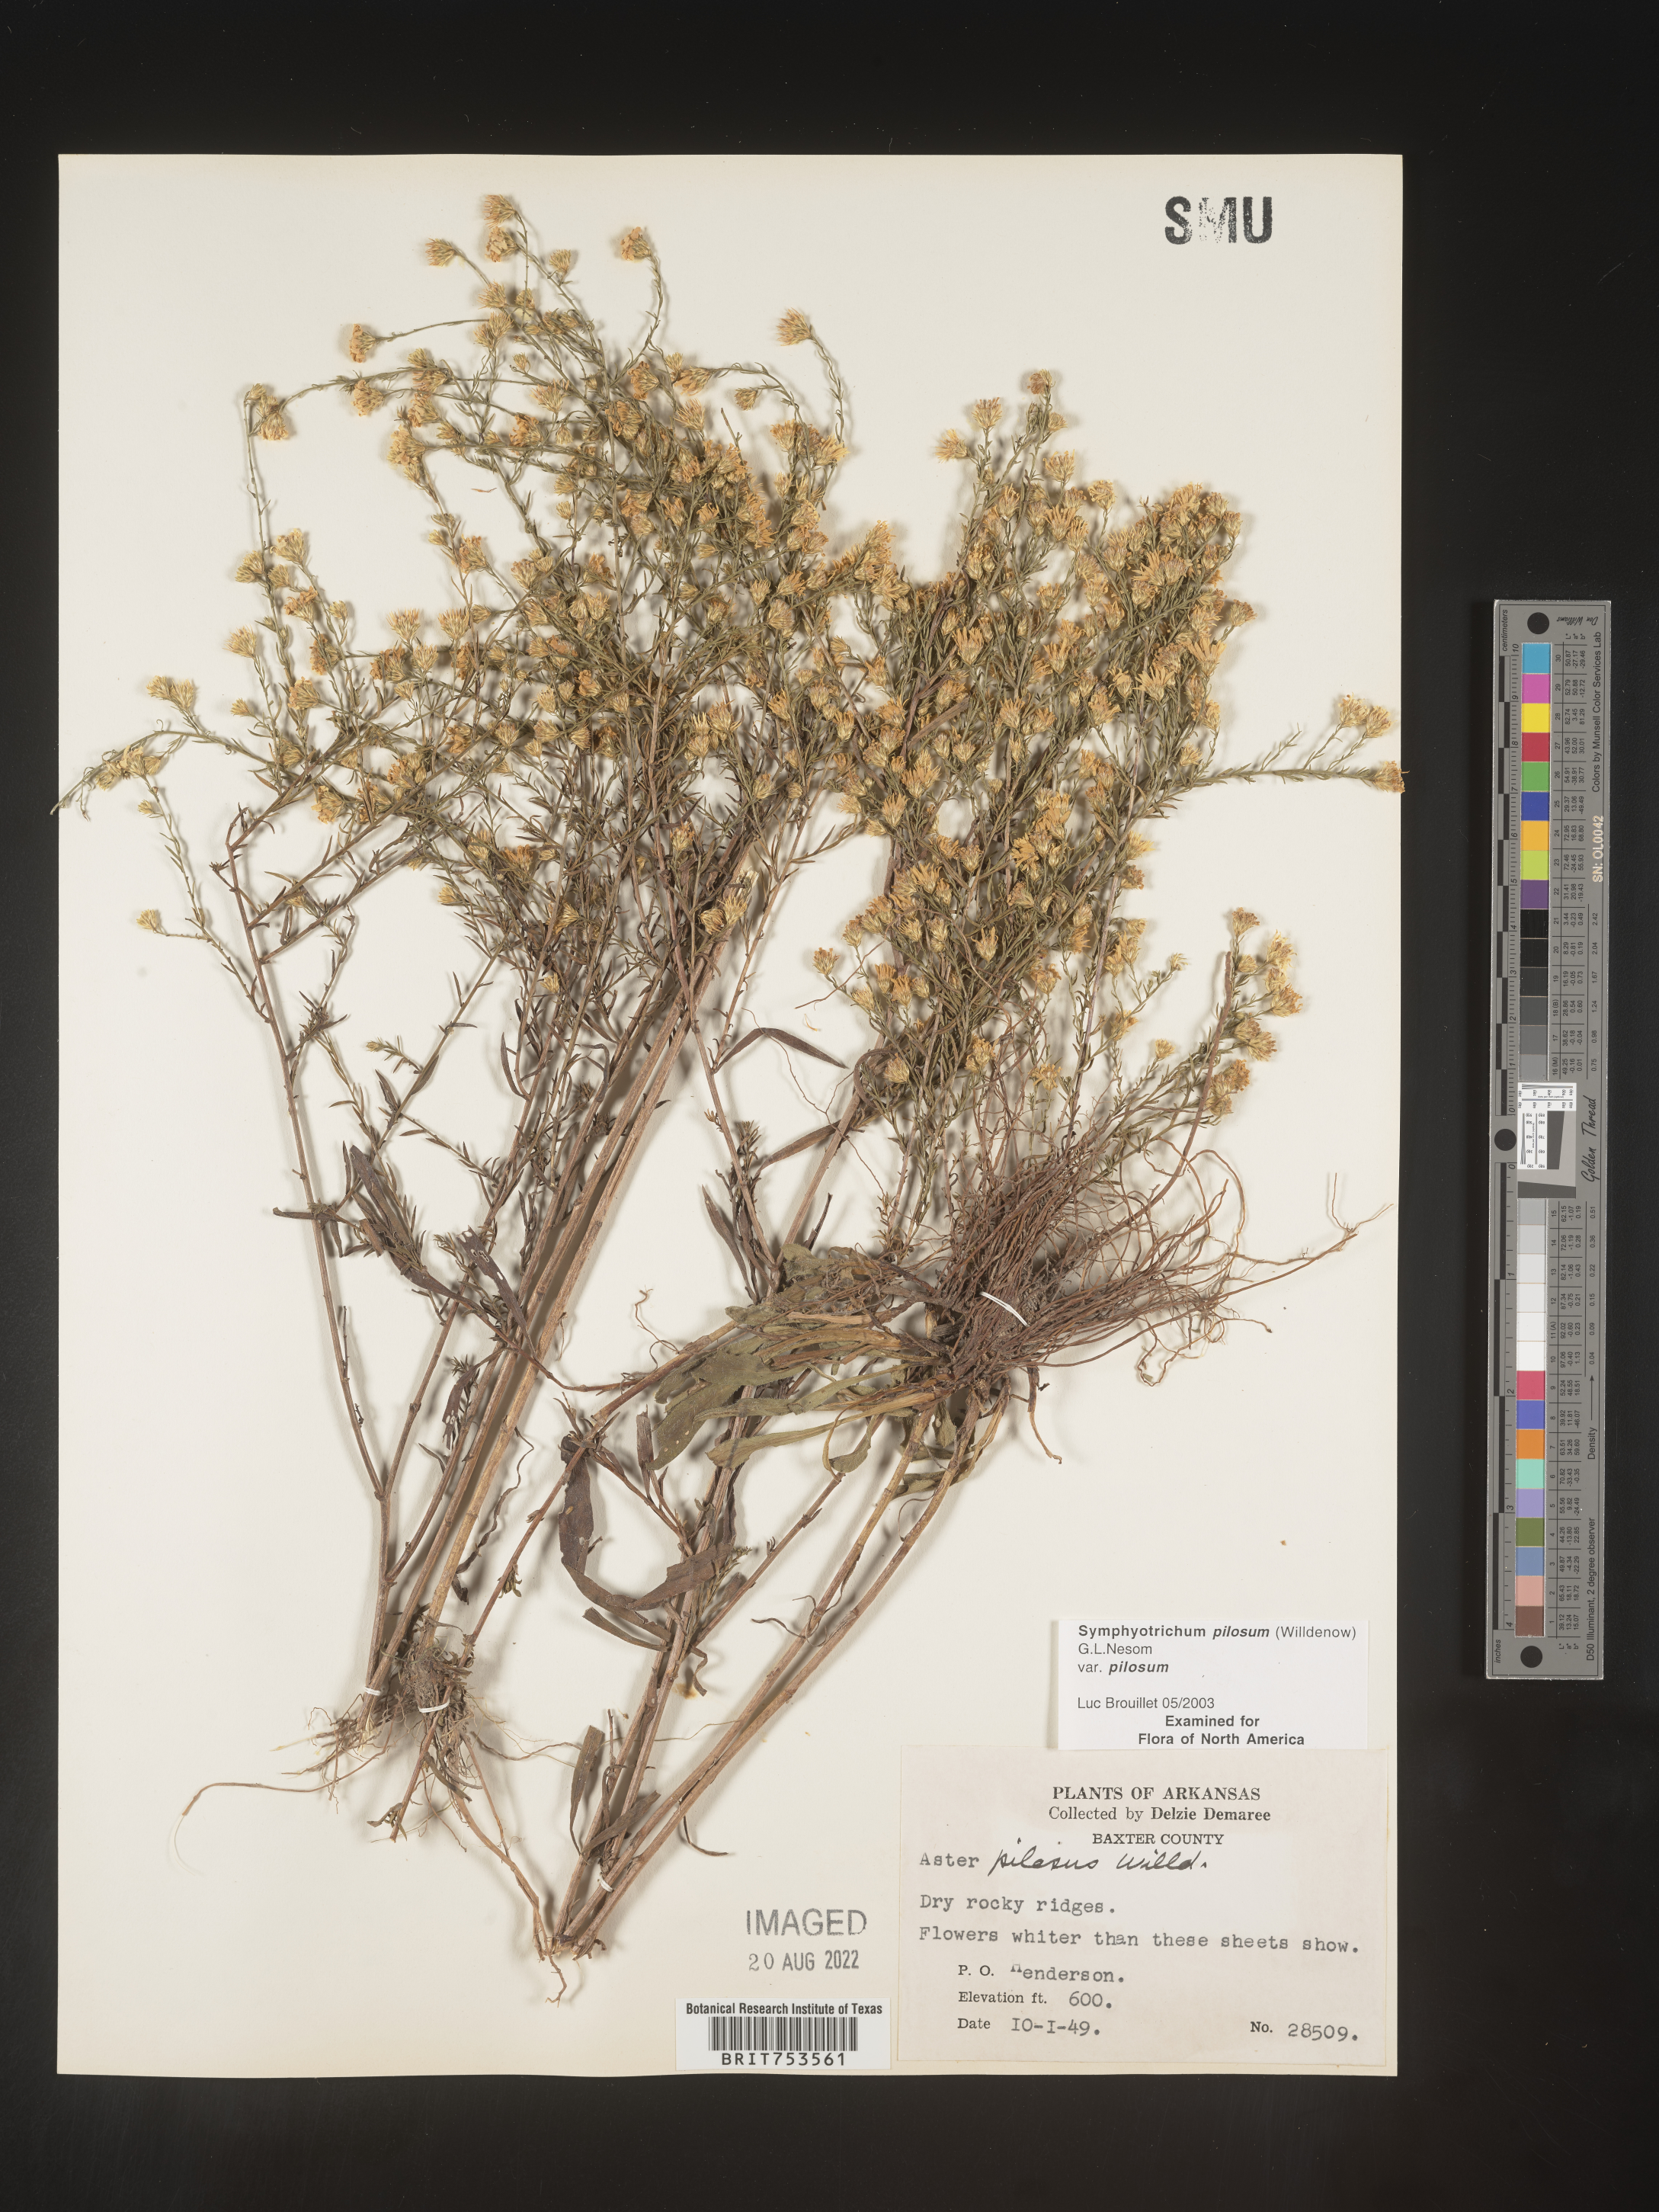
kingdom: Plantae
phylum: Tracheophyta
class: Magnoliopsida
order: Asterales
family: Asteraceae
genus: Symphyotrichum
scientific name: Symphyotrichum pilosum
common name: Awl aster
